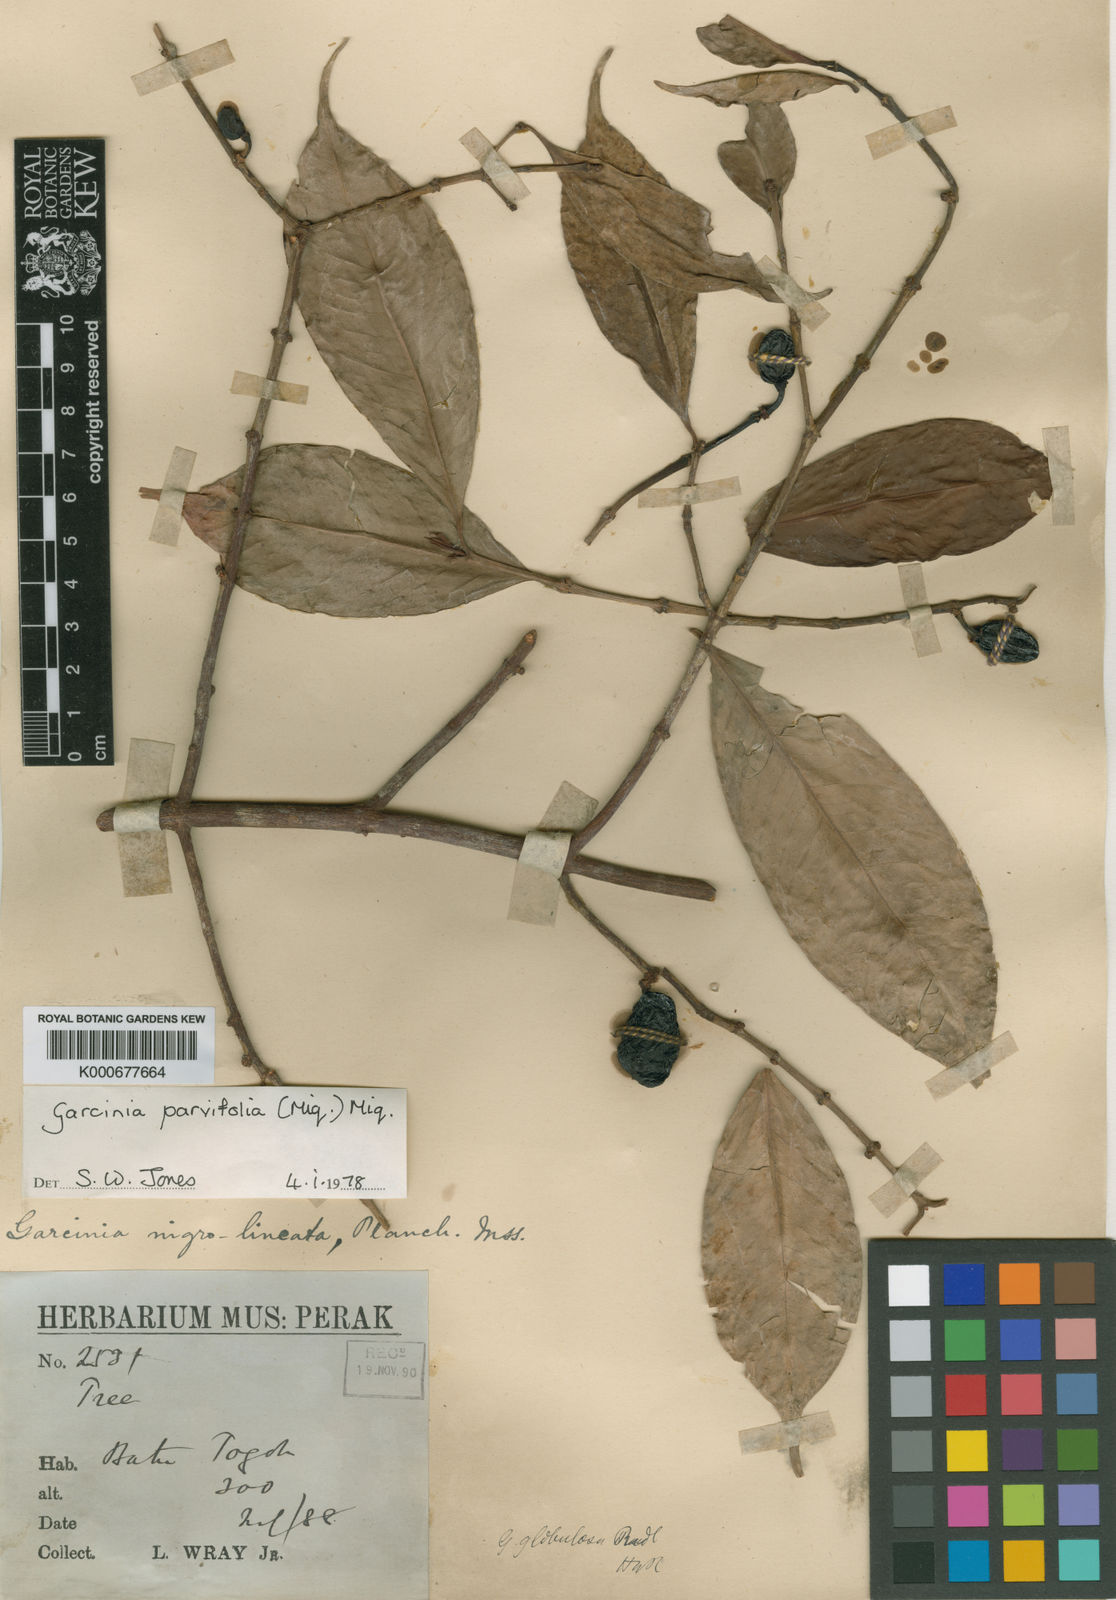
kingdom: Plantae
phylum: Tracheophyta
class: Magnoliopsida
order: Malpighiales
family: Clusiaceae
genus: Garcinia
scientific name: Garcinia parvifolia
